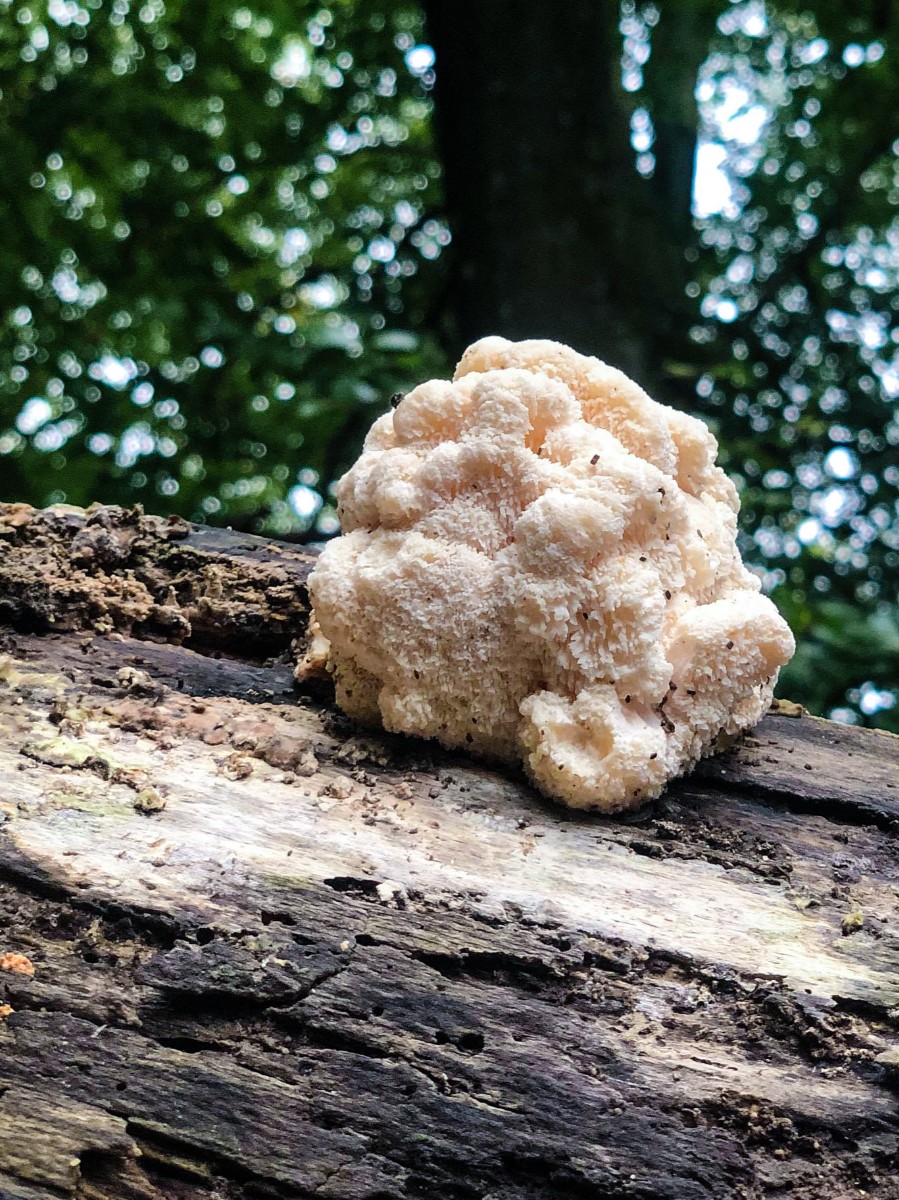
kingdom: Fungi
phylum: Basidiomycota
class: Agaricomycetes
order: Russulales
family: Hericiaceae
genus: Hericium
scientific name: Hericium cirrhatum
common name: børstepigsvamp
